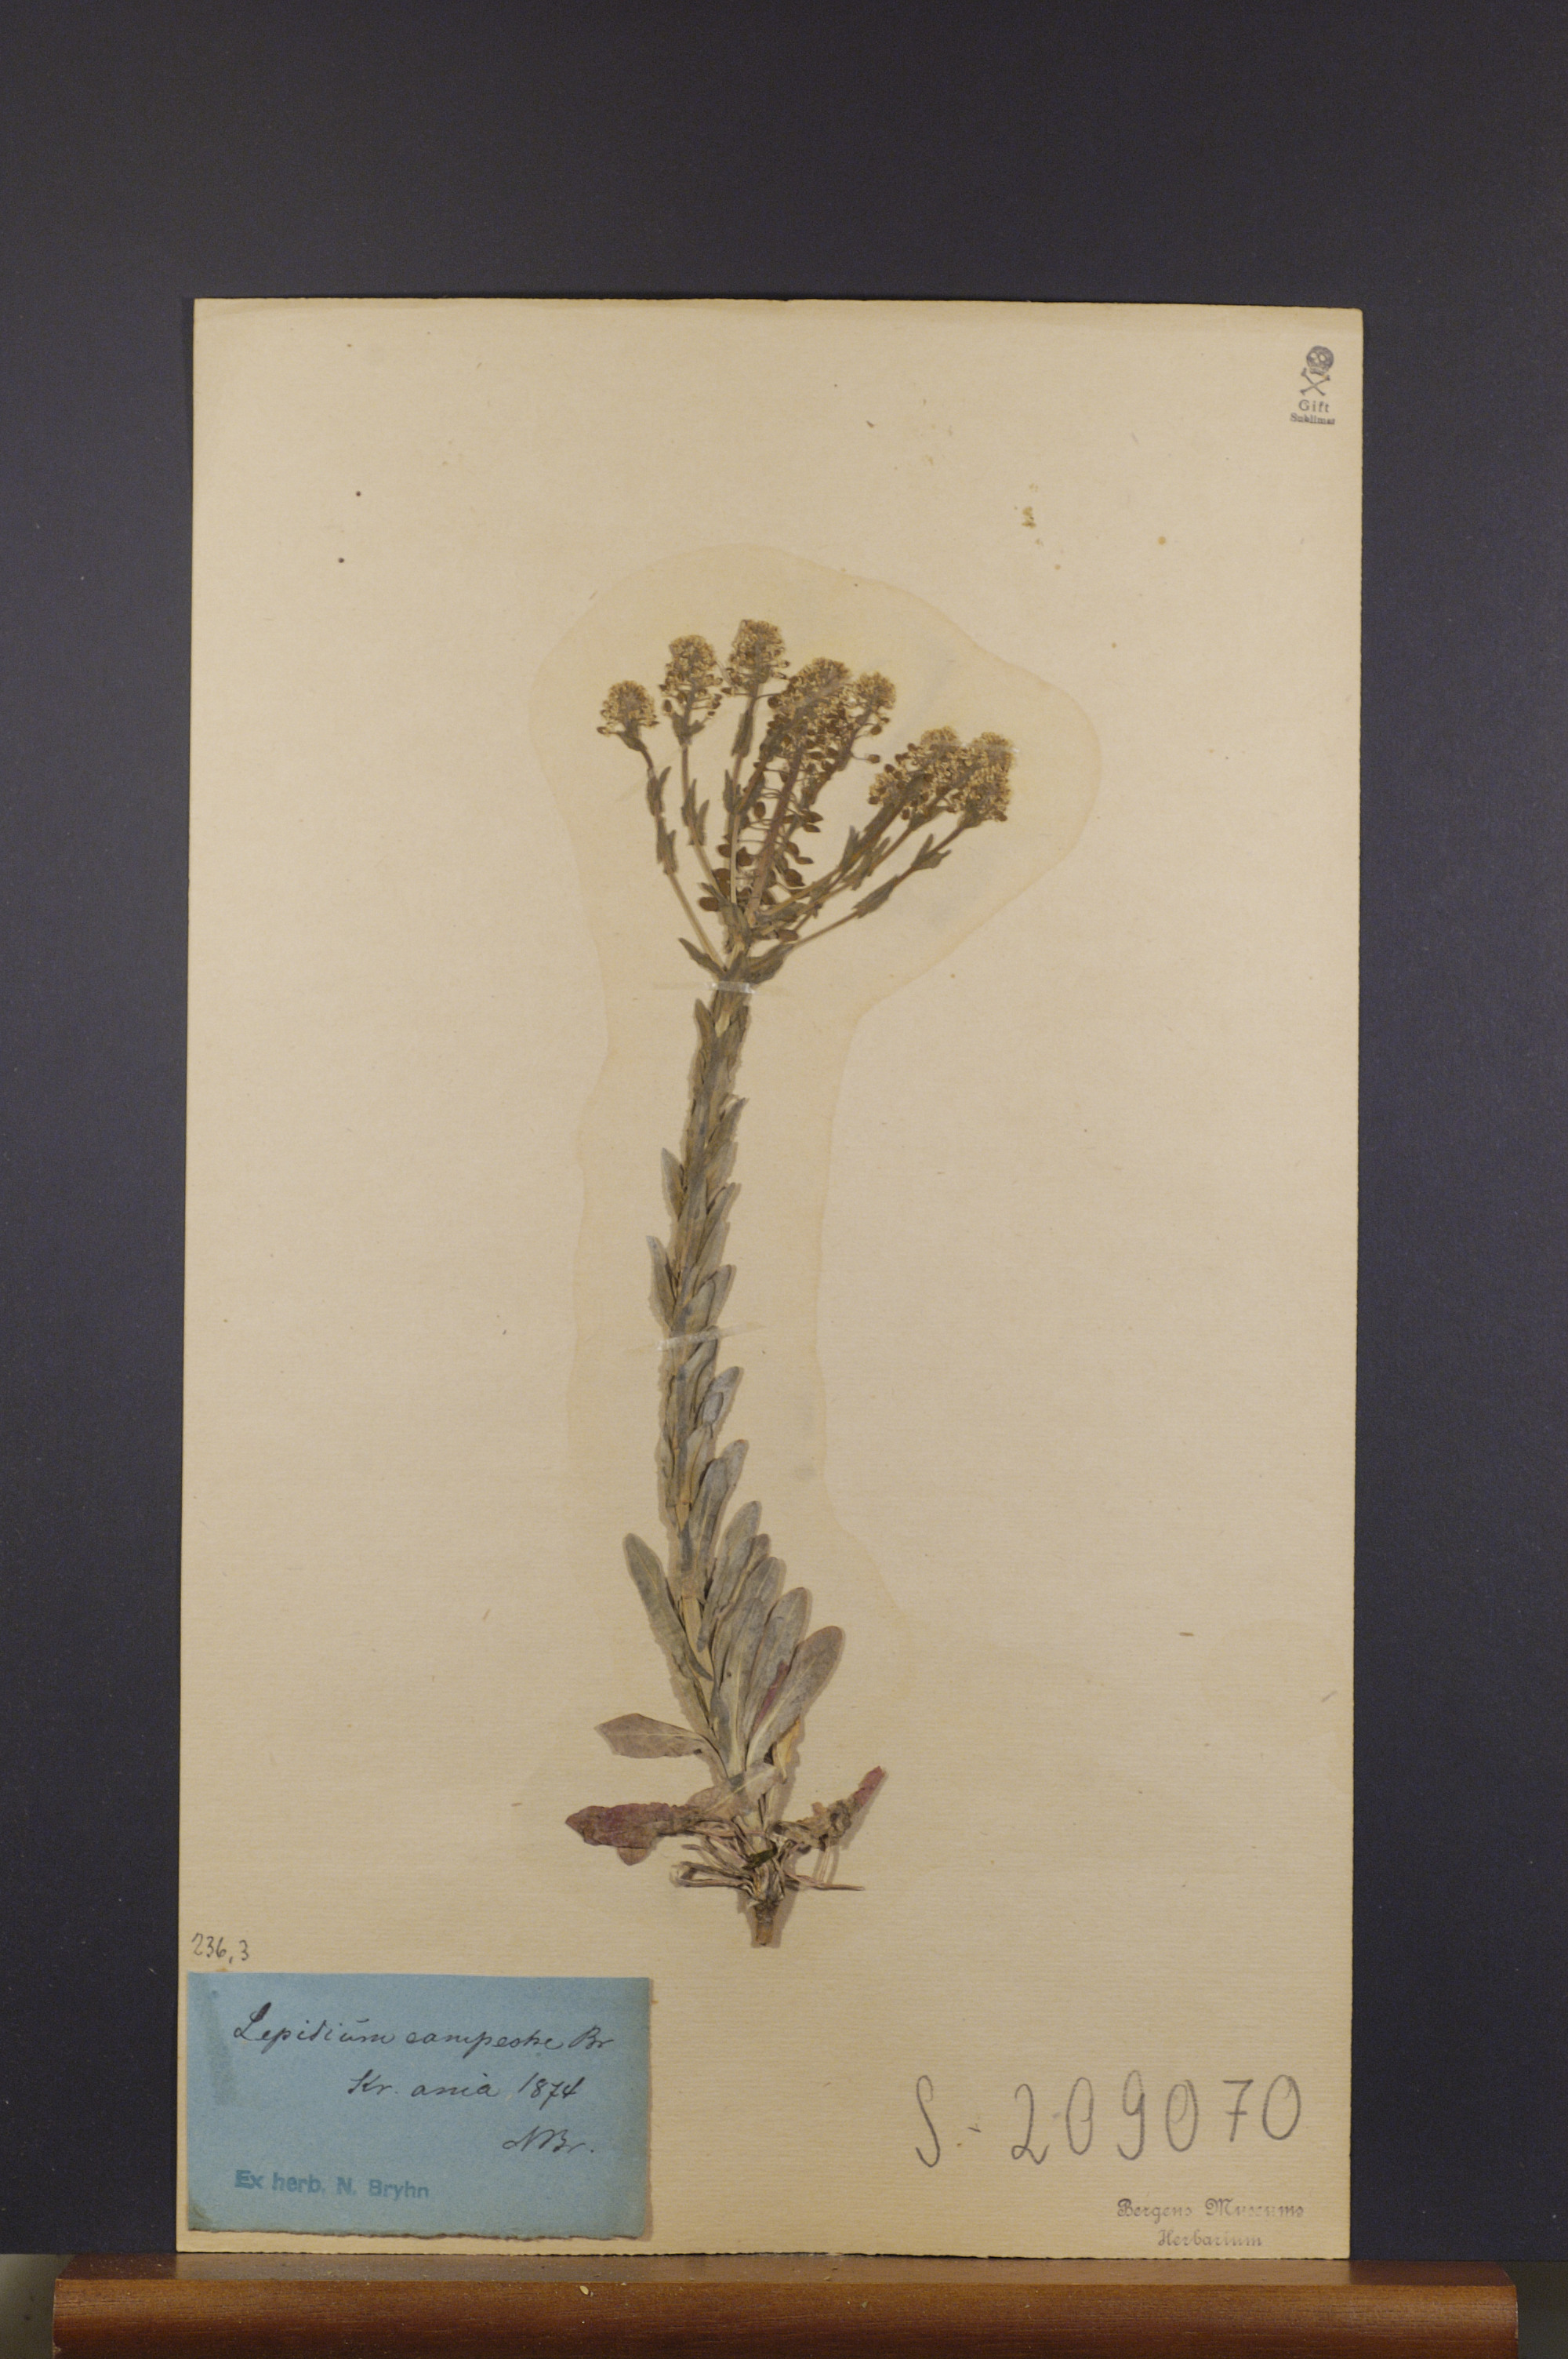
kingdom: Plantae
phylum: Tracheophyta
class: Magnoliopsida
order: Brassicales
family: Brassicaceae
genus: Lepidium
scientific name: Lepidium campestre
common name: Field pepperwort
